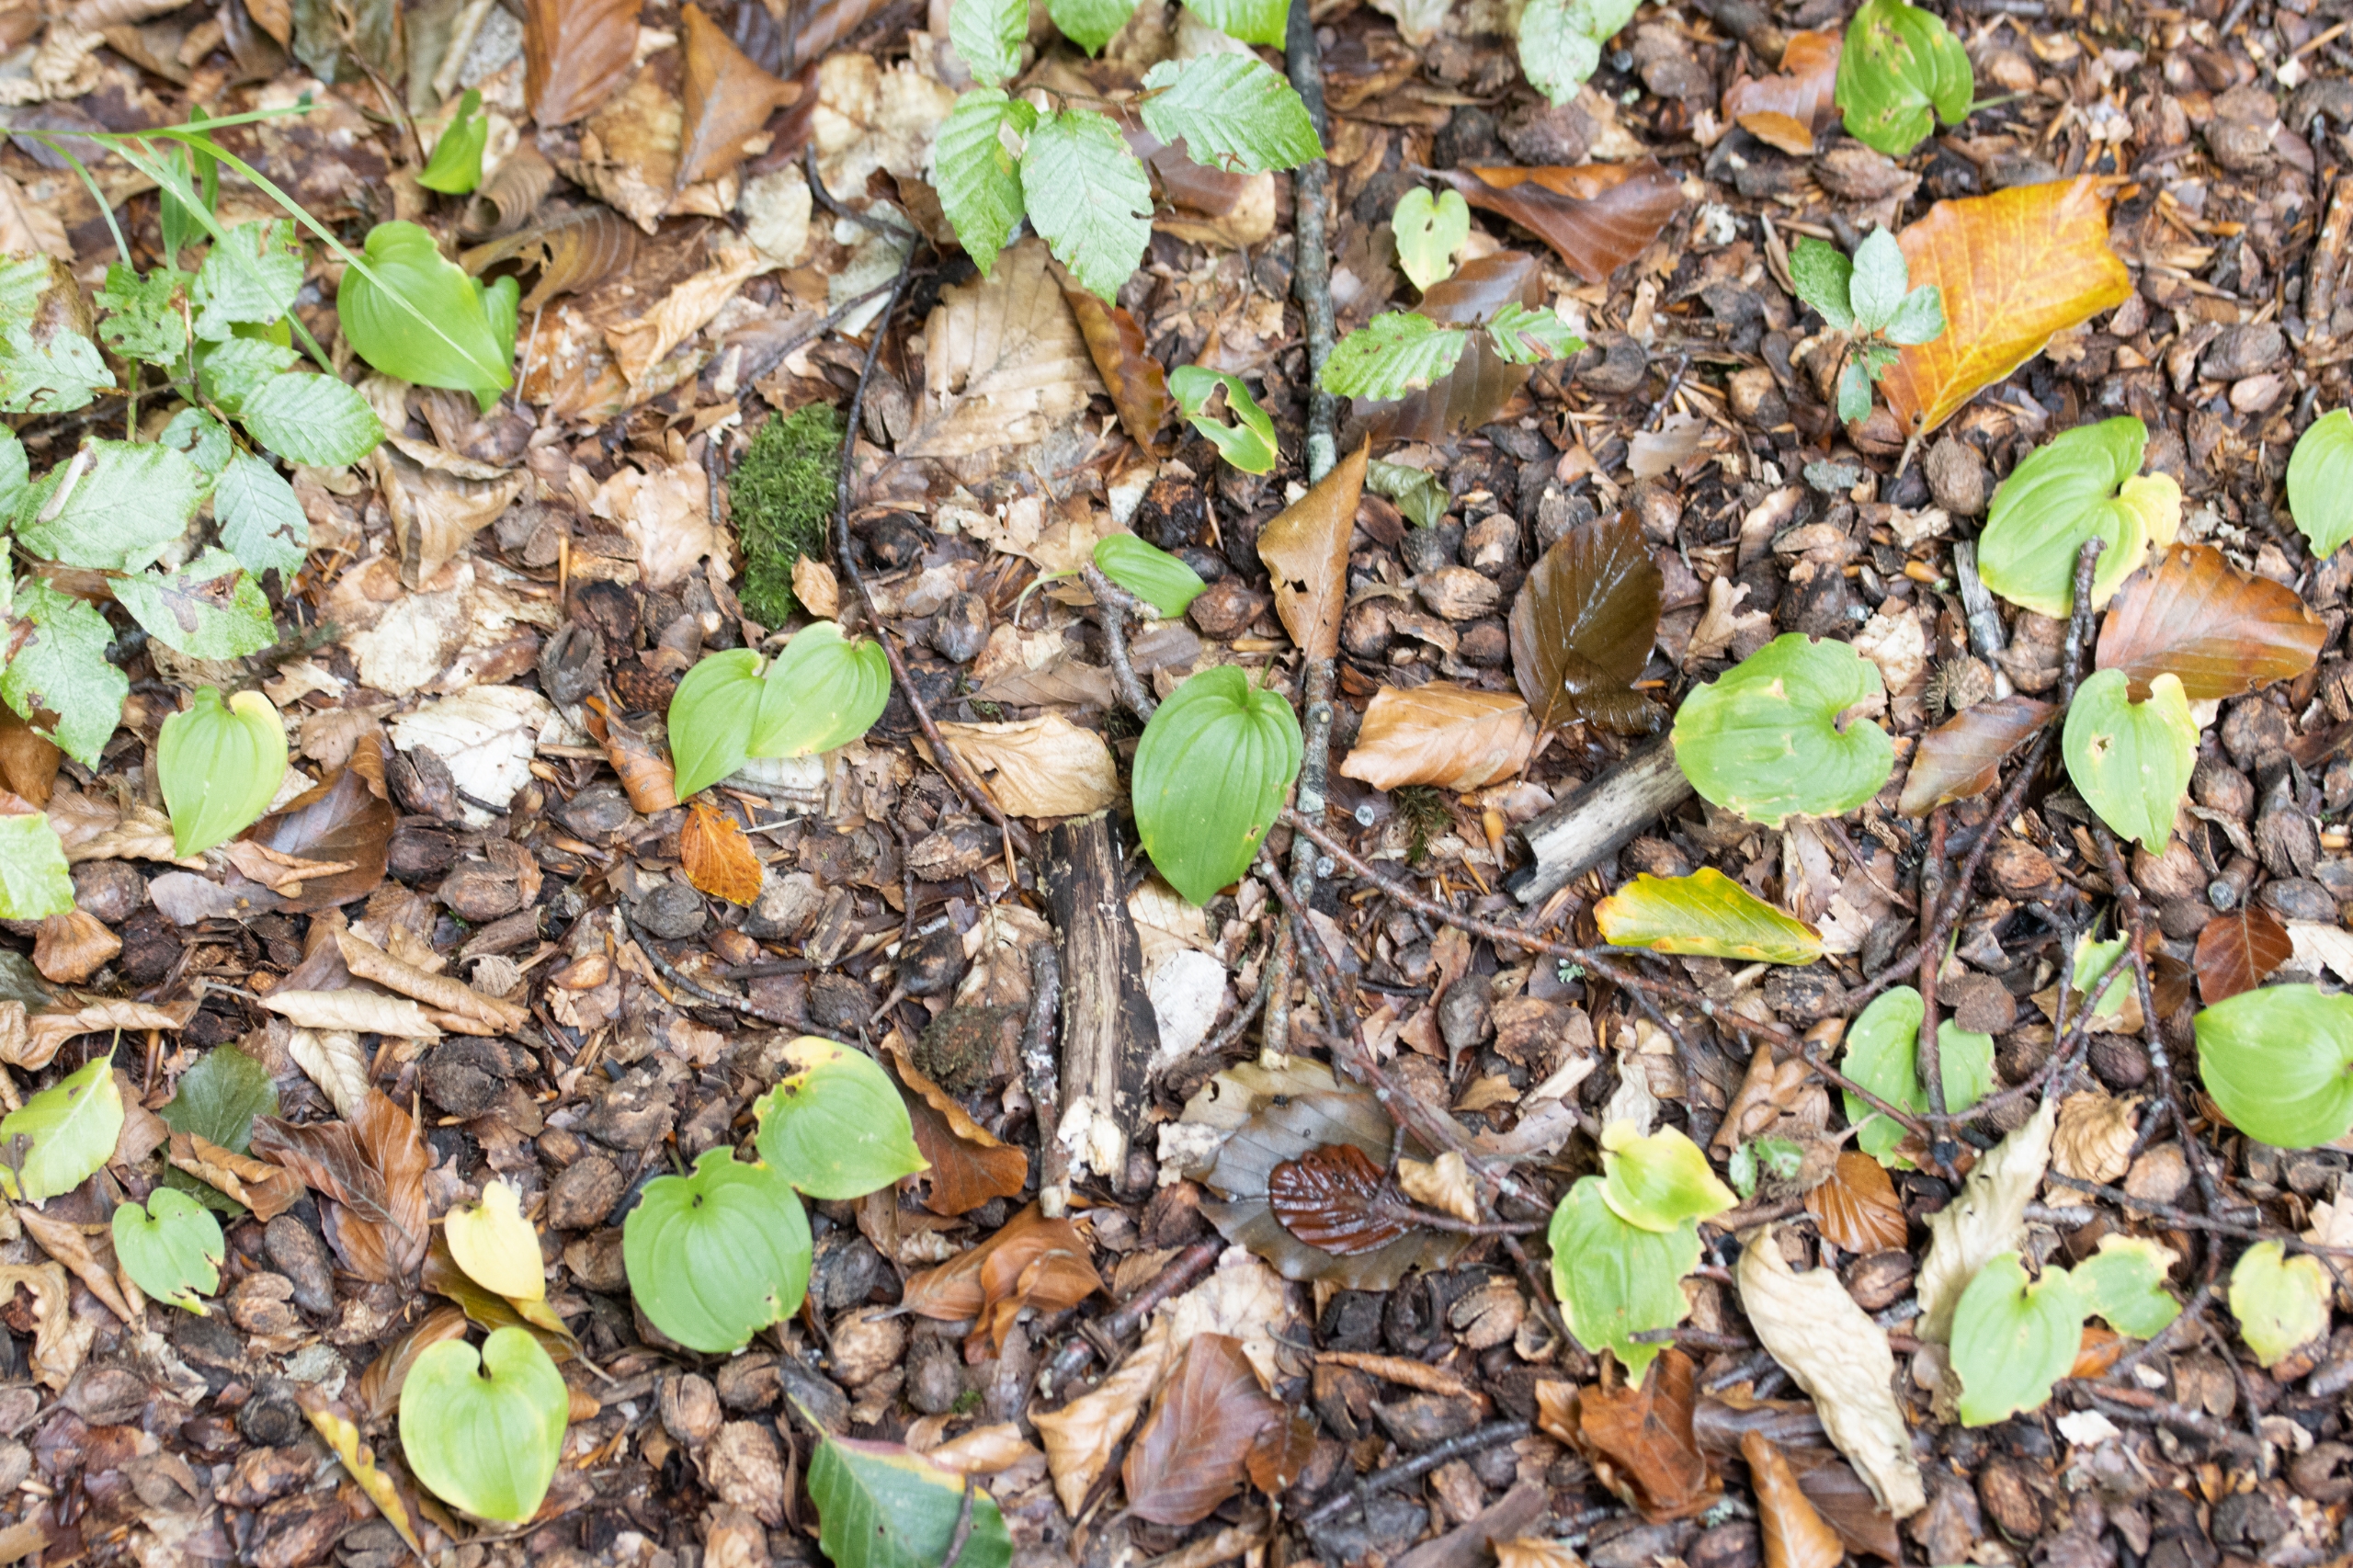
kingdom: Plantae
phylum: Tracheophyta
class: Liliopsida
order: Asparagales
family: Asparagaceae
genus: Maianthemum
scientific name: Maianthemum bifolium
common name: Majblomst
